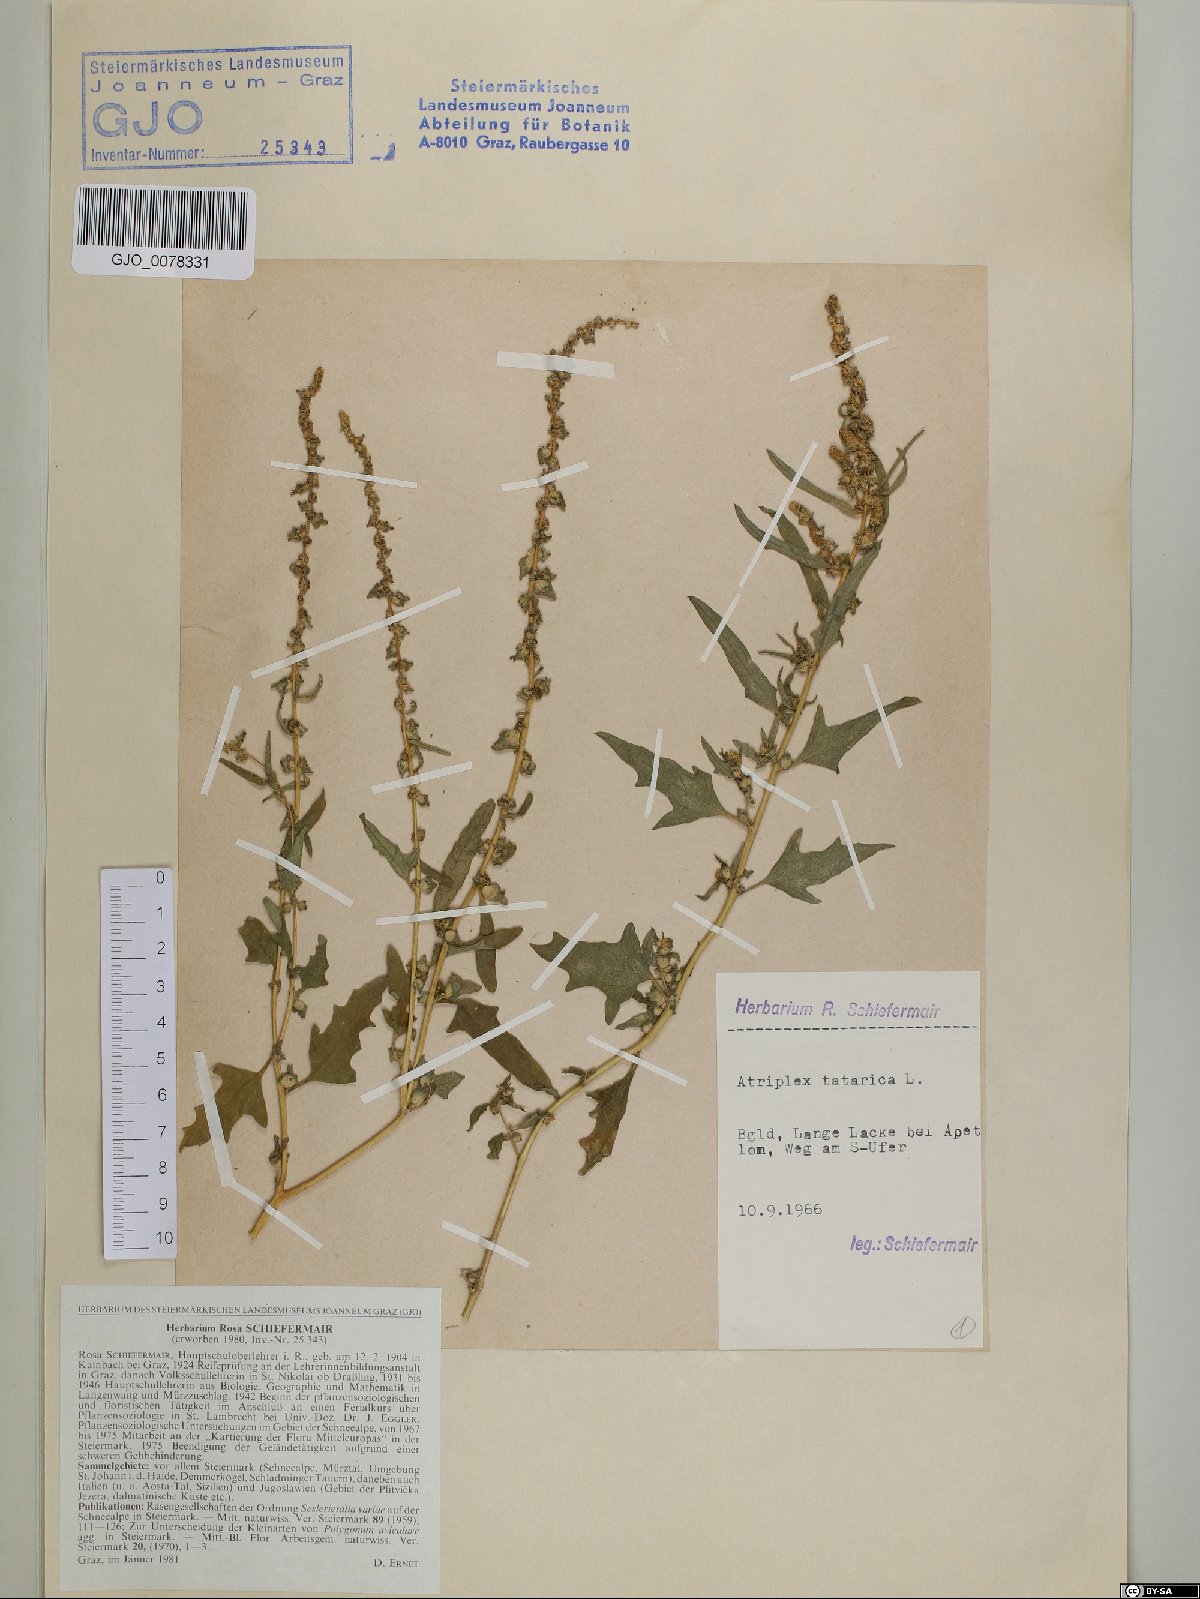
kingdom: Plantae
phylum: Tracheophyta
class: Magnoliopsida
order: Caryophyllales
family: Amaranthaceae
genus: Atriplex
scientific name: Atriplex tatarica
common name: Tatarian orache
